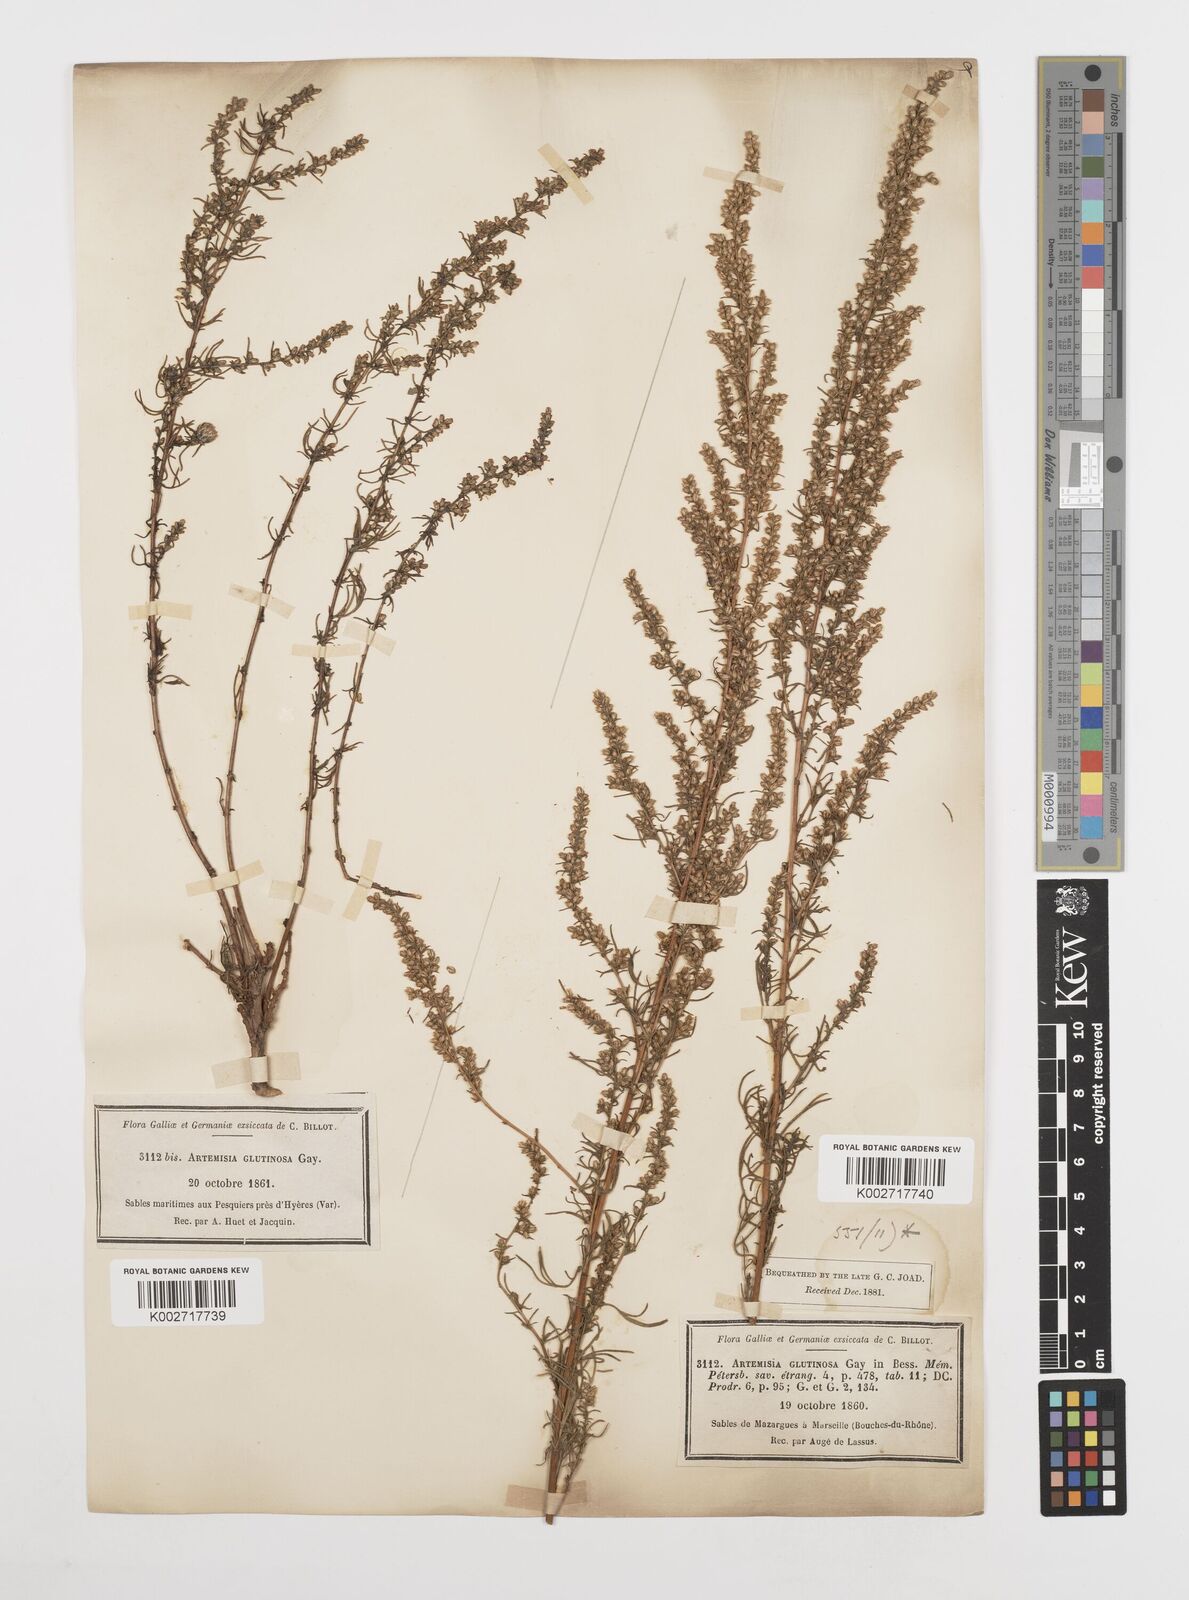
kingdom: Plantae
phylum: Tracheophyta
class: Magnoliopsida
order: Asterales
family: Asteraceae
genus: Artemisia
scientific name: Artemisia campestris
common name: Field wormwood
